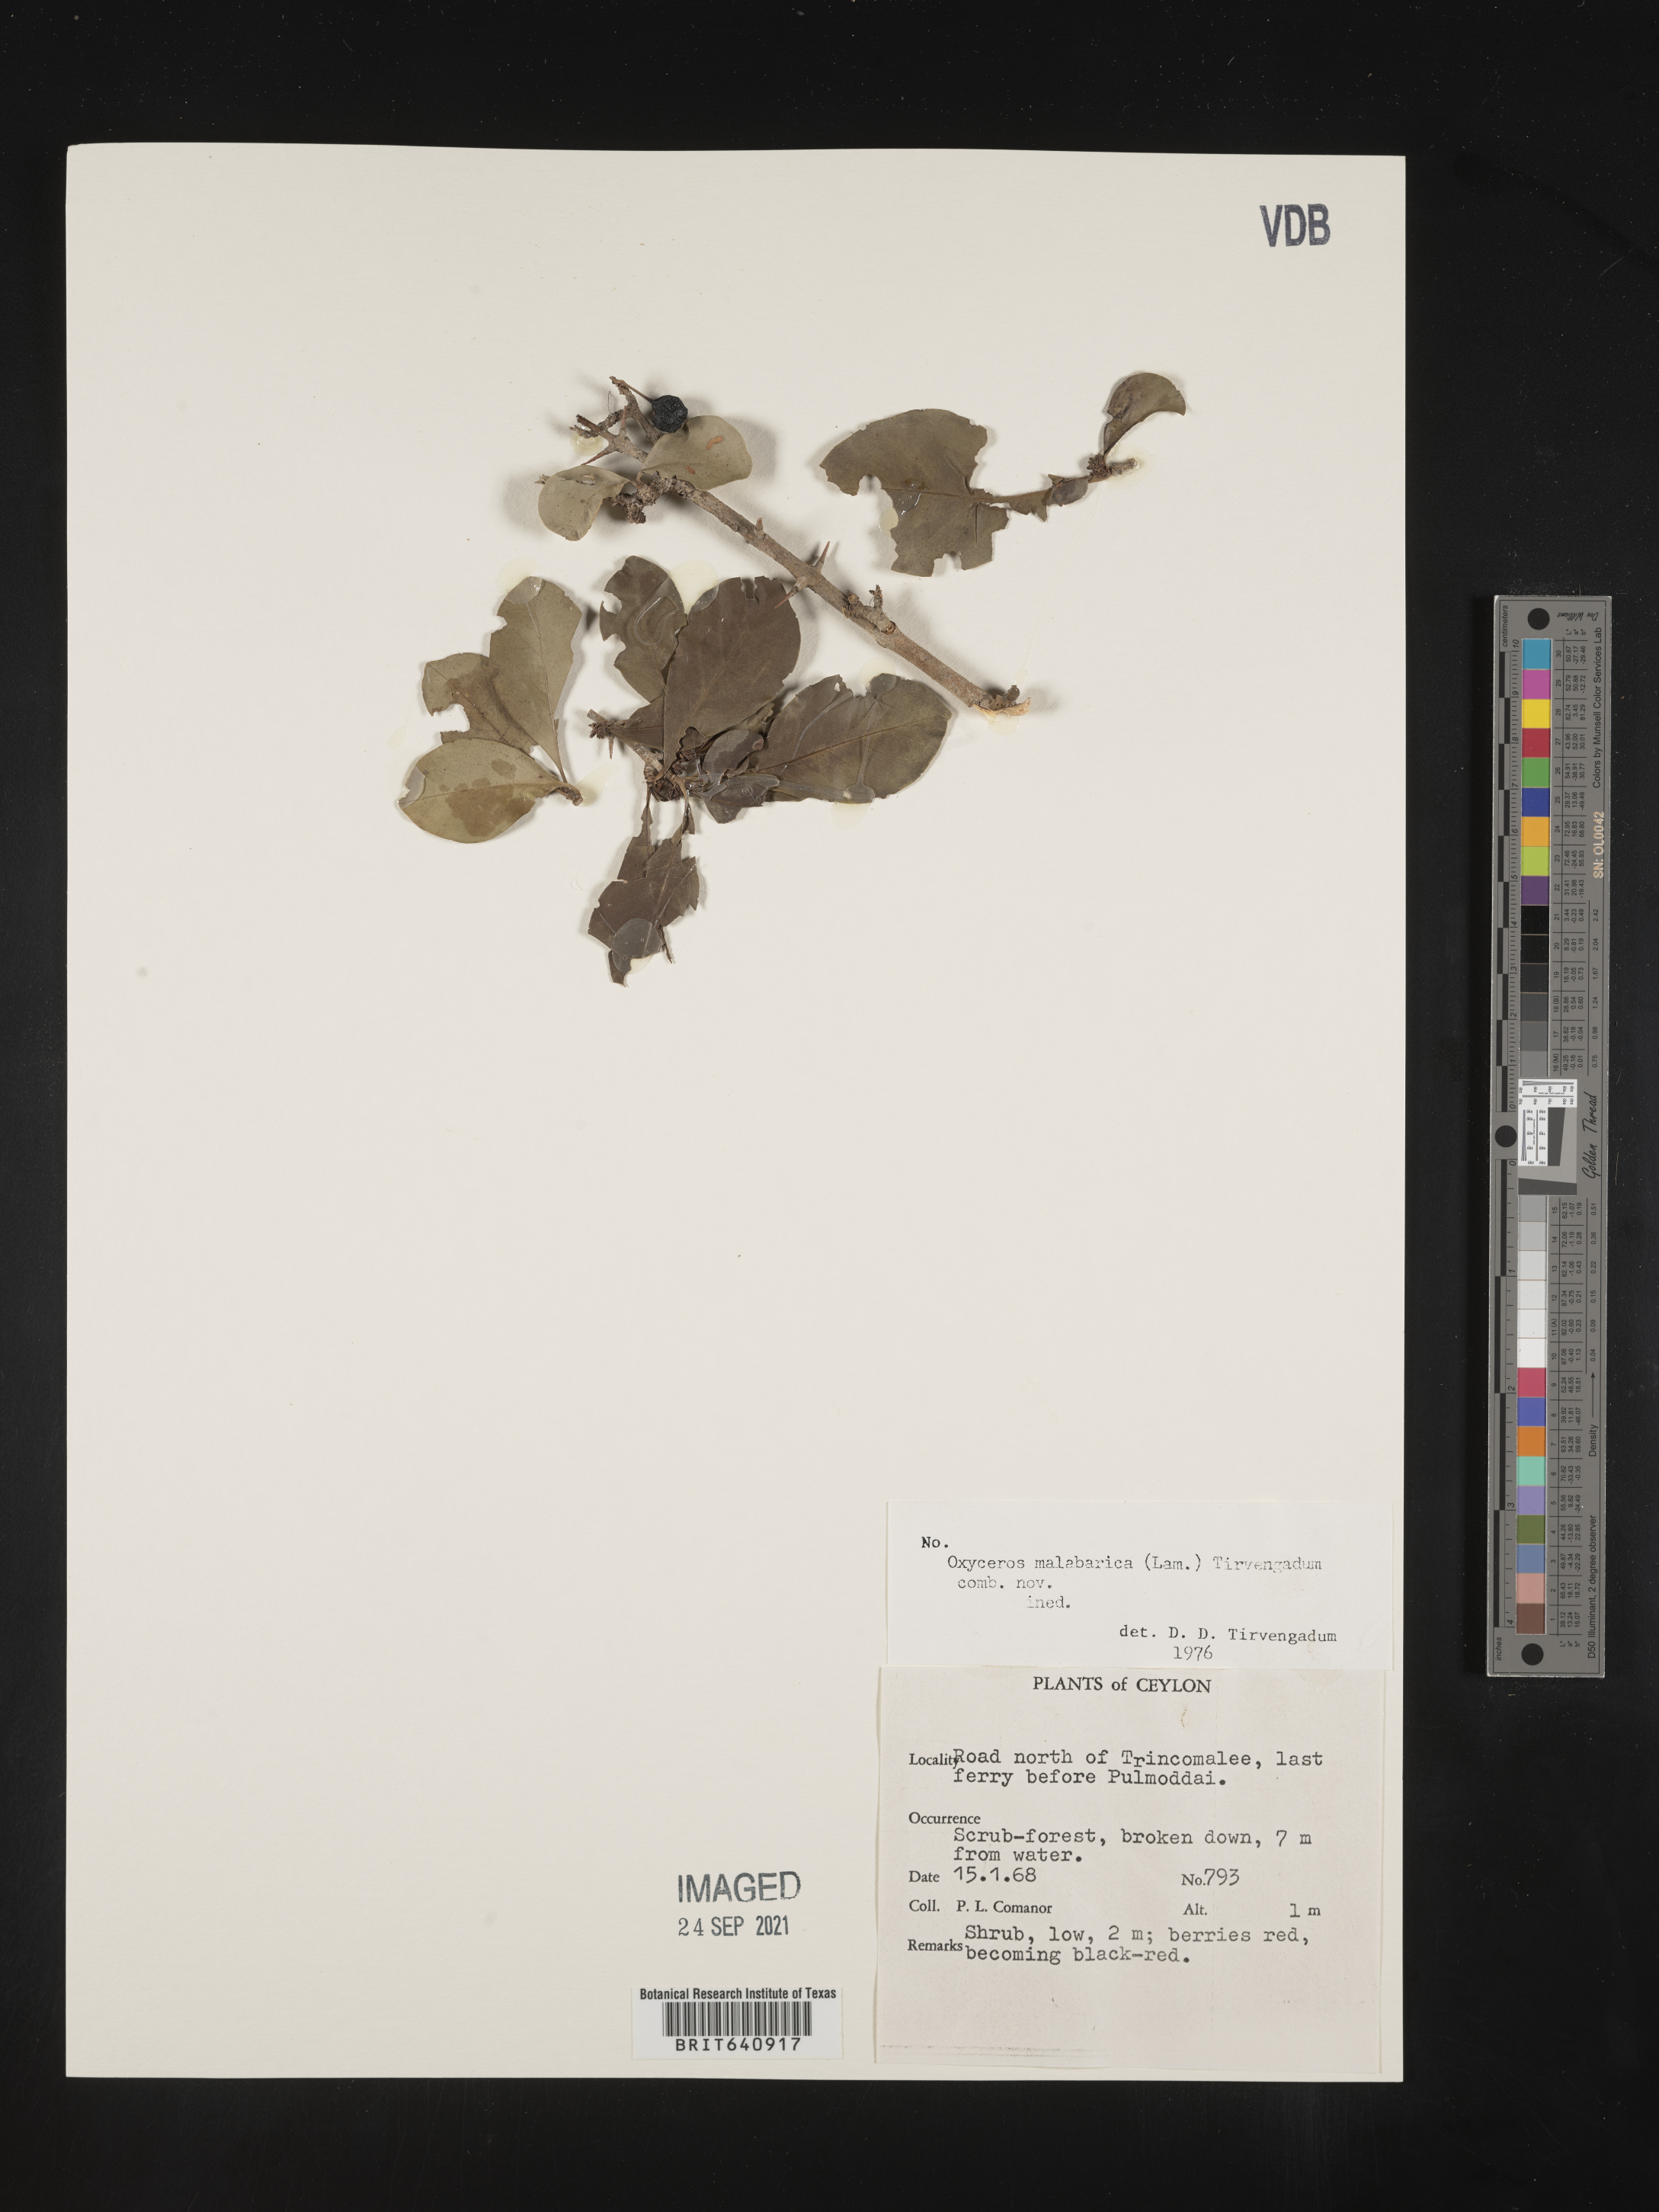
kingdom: Plantae
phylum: Tracheophyta
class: Magnoliopsida
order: Gentianales
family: Rubiaceae
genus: Oxyceros
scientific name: Oxyceros
